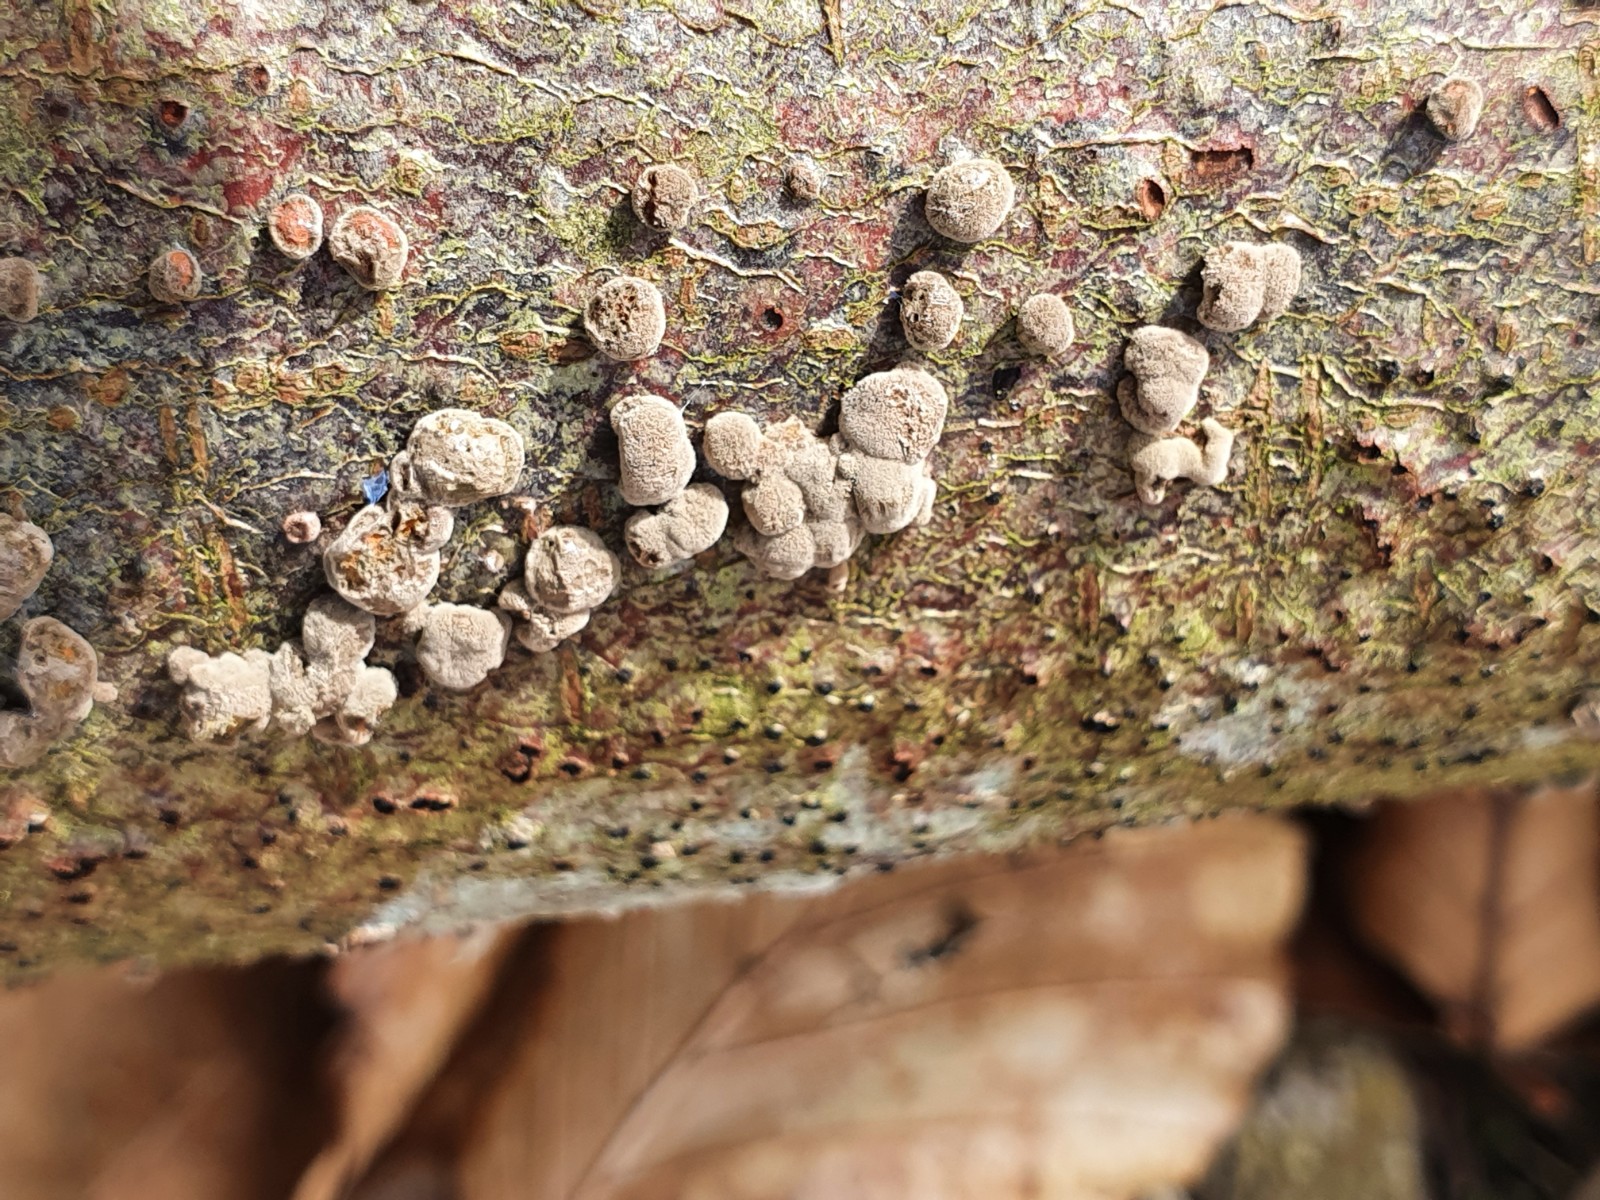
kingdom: Fungi
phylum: Ascomycota
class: Sordariomycetes
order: Xylariales
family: Hypoxylaceae
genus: Hypoxylon
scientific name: Hypoxylon fragiforme
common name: kuljordbær
